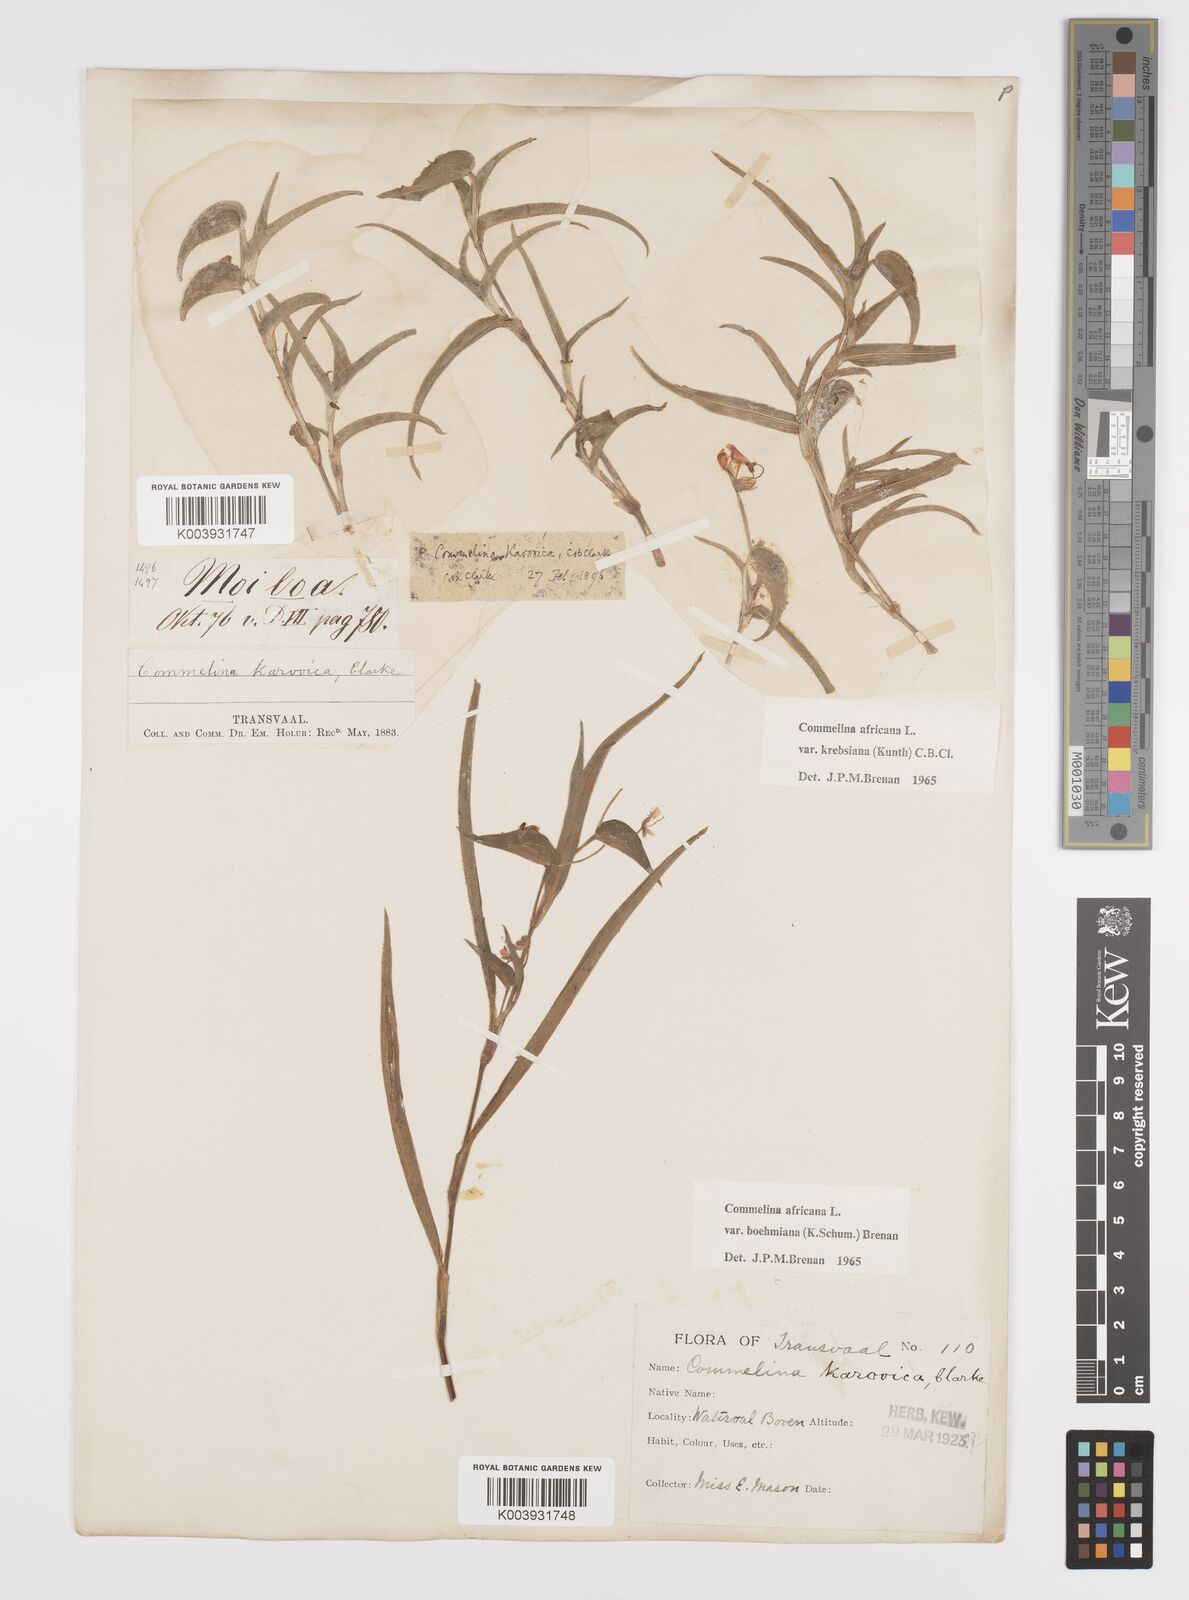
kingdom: Plantae
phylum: Tracheophyta
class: Liliopsida
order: Commelinales
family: Commelinaceae
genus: Commelina
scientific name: Commelina africana
